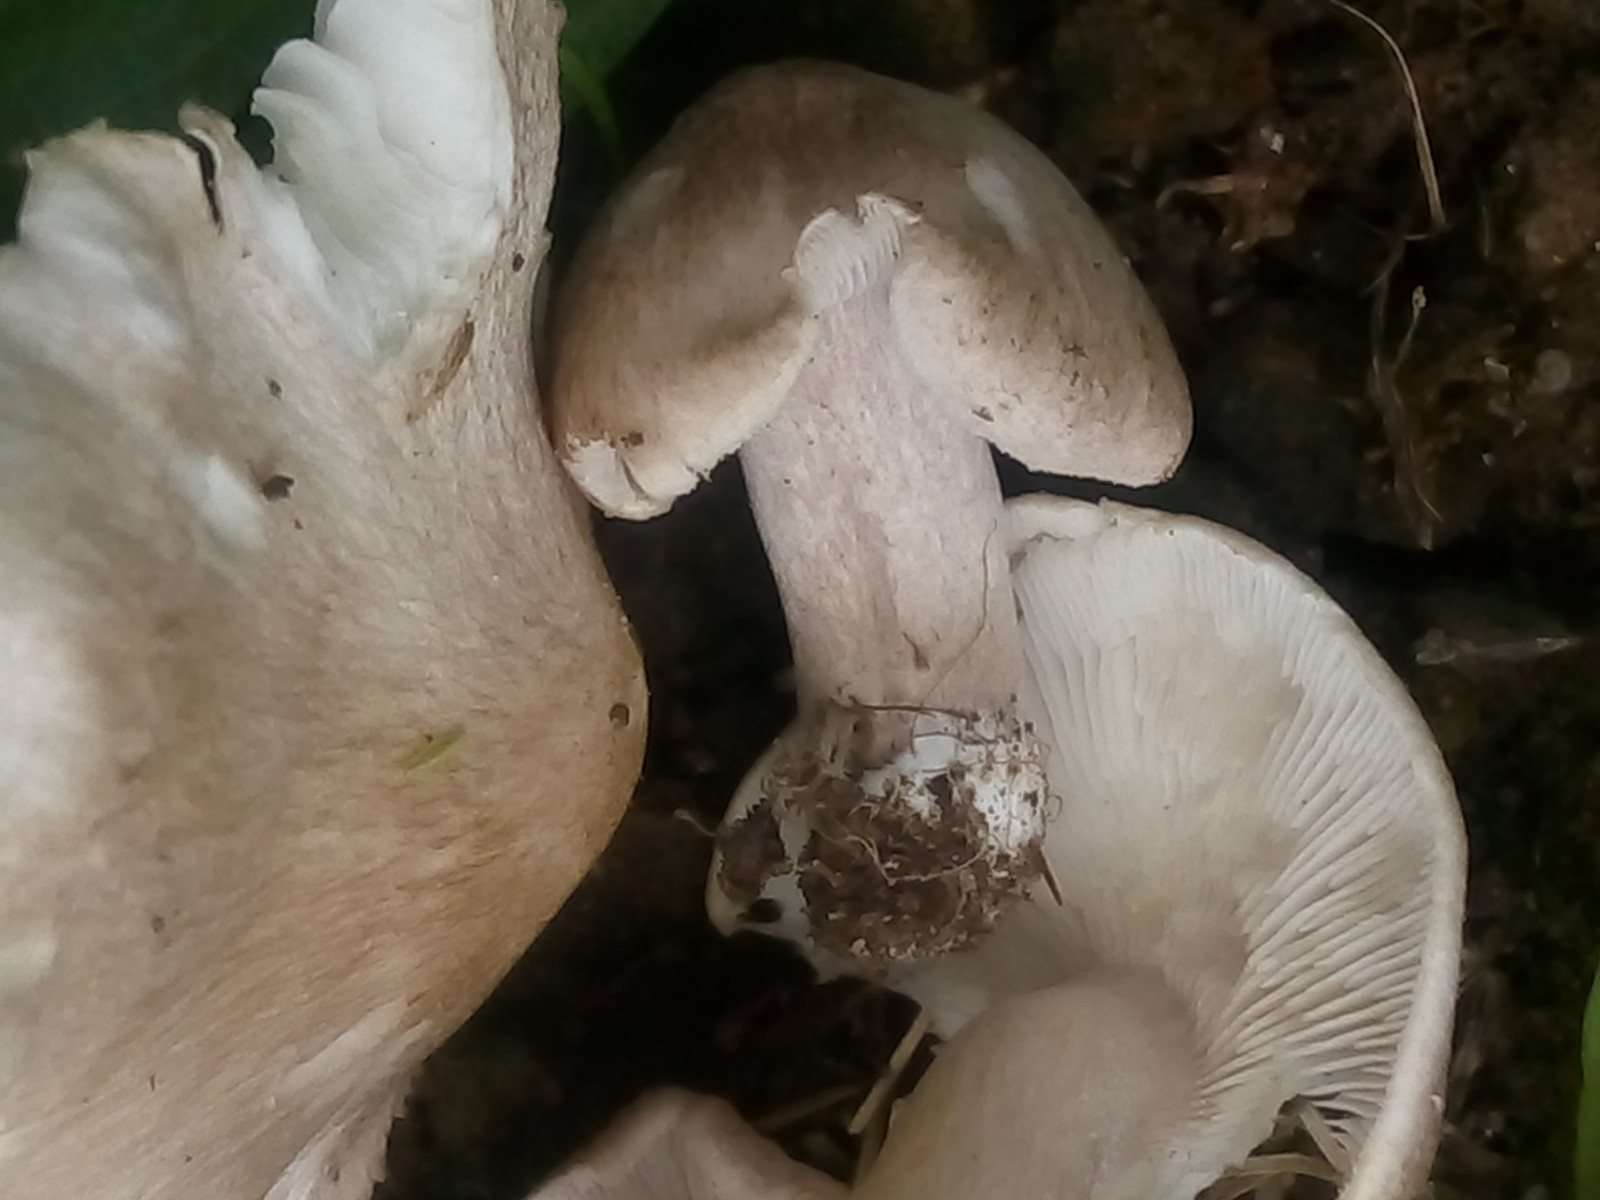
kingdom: Fungi
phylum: Basidiomycota
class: Agaricomycetes
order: Agaricales
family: Tricholomataceae
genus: Tricholoma
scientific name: Tricholoma argyraceum
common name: spids ridderhat
